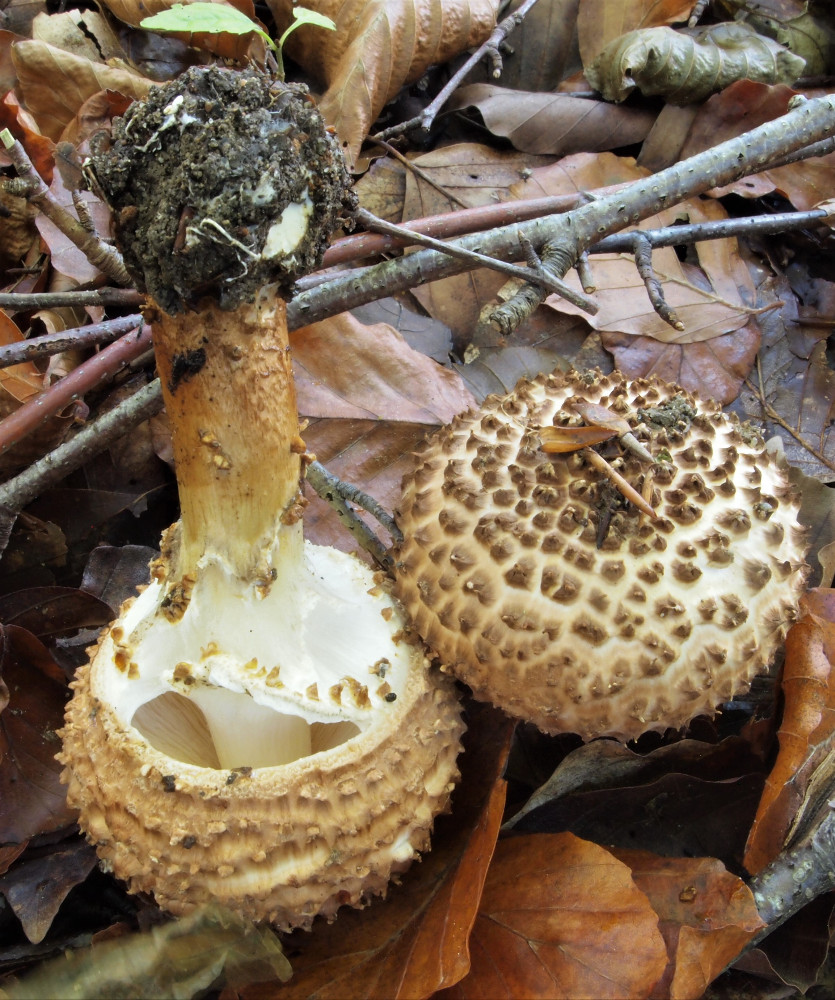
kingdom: Fungi
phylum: Basidiomycota
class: Agaricomycetes
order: Agaricales
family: Agaricaceae
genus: Echinoderma
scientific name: Echinoderma asperum
